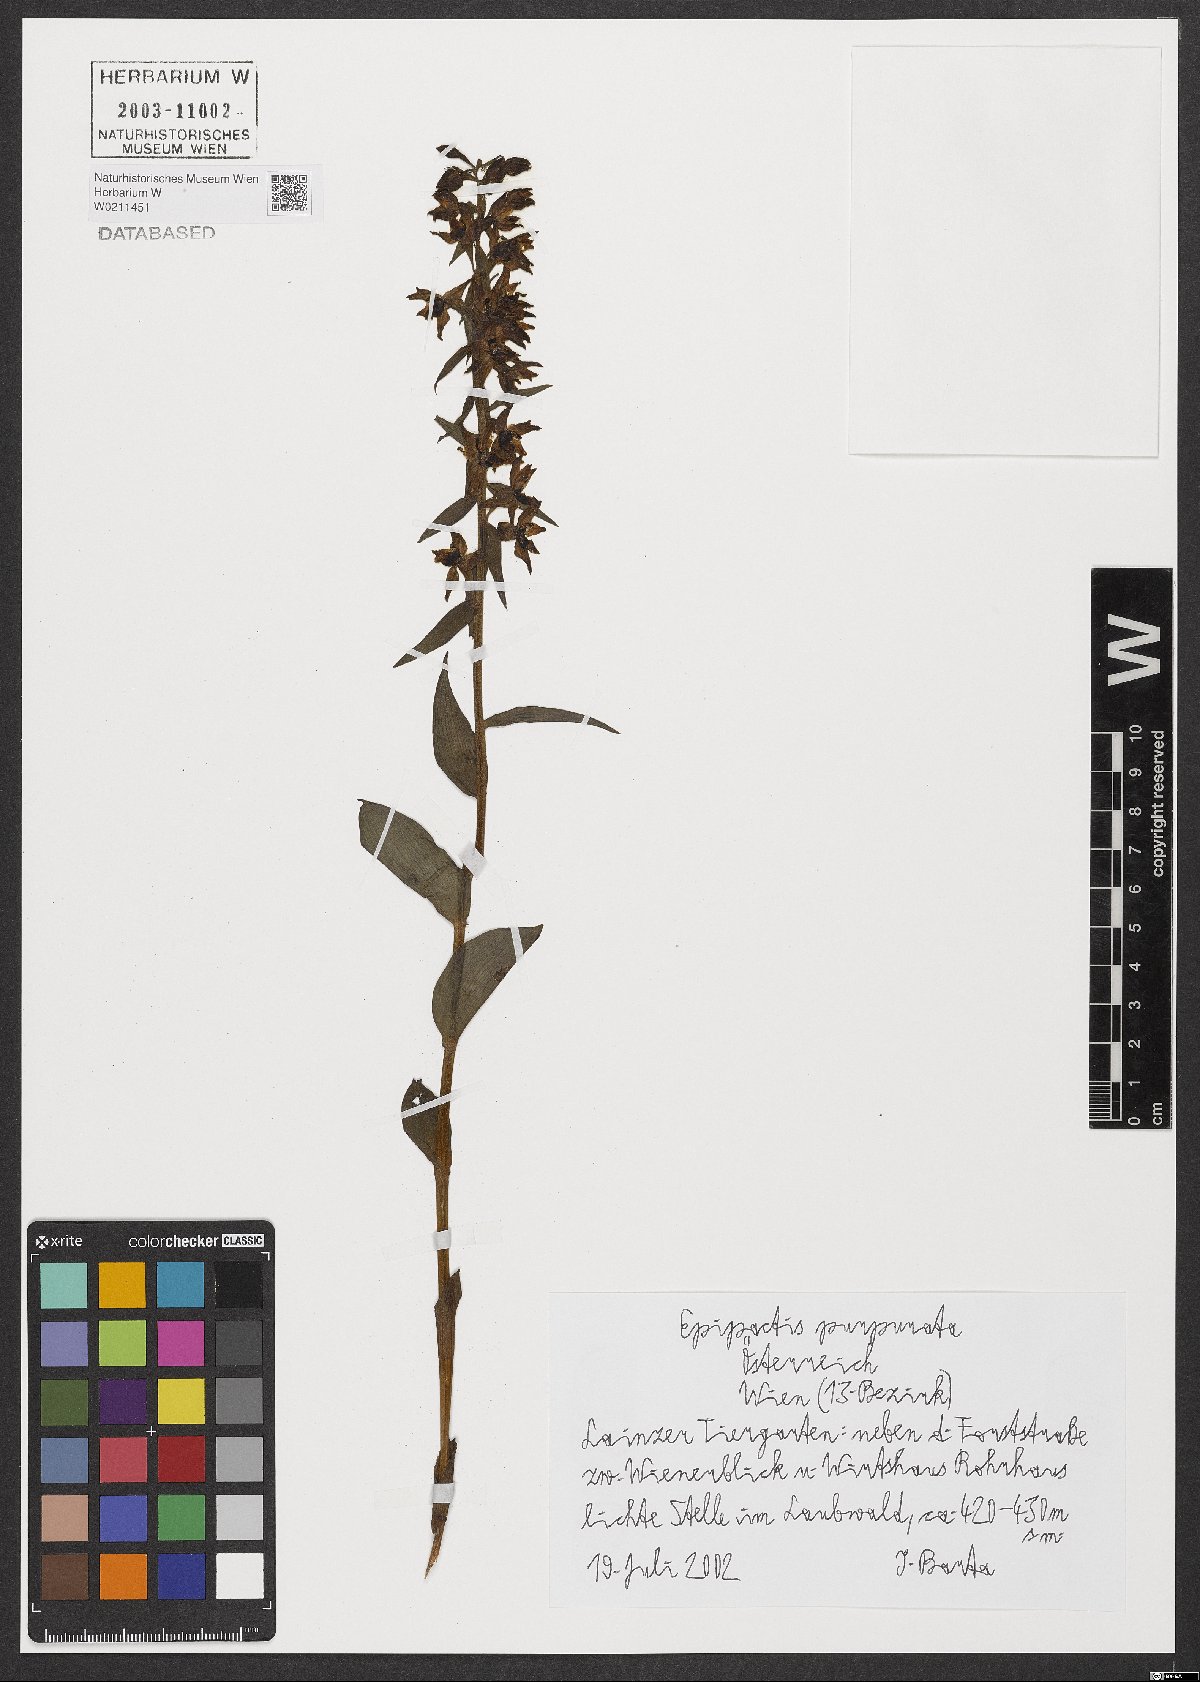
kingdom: Plantae
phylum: Tracheophyta
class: Liliopsida
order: Asparagales
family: Orchidaceae
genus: Epipactis
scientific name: Epipactis purpurata
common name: Violet helleborine
